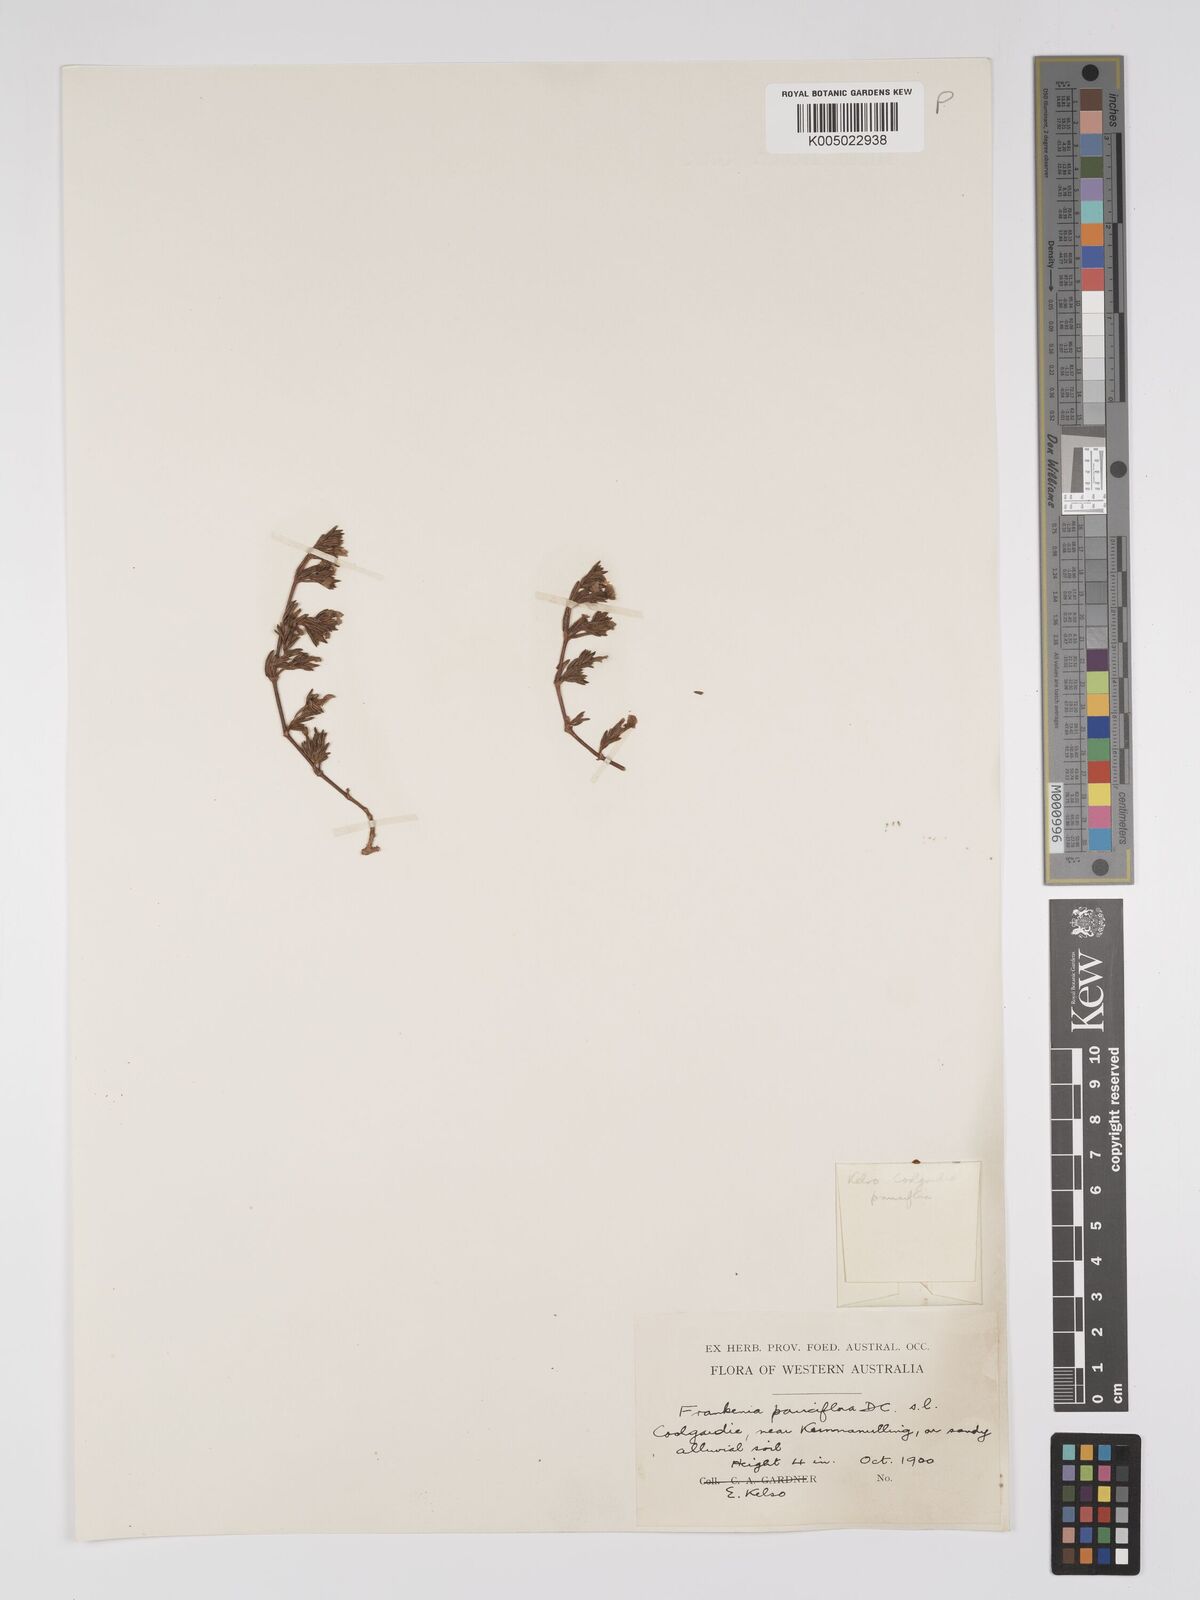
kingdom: Plantae
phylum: Tracheophyta
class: Magnoliopsida
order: Caryophyllales
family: Frankeniaceae
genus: Frankenia
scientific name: Frankenia pauciflora
